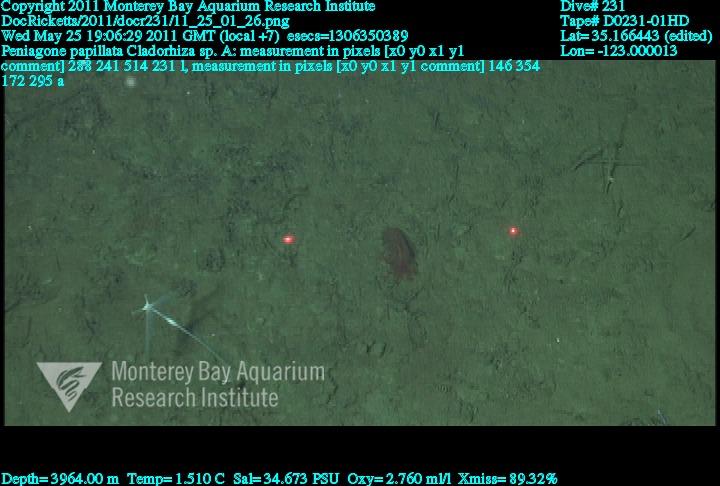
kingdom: Animalia
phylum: Porifera
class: Demospongiae
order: Poecilosclerida
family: Cladorhizidae
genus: Cladorhiza
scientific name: Cladorhiza
